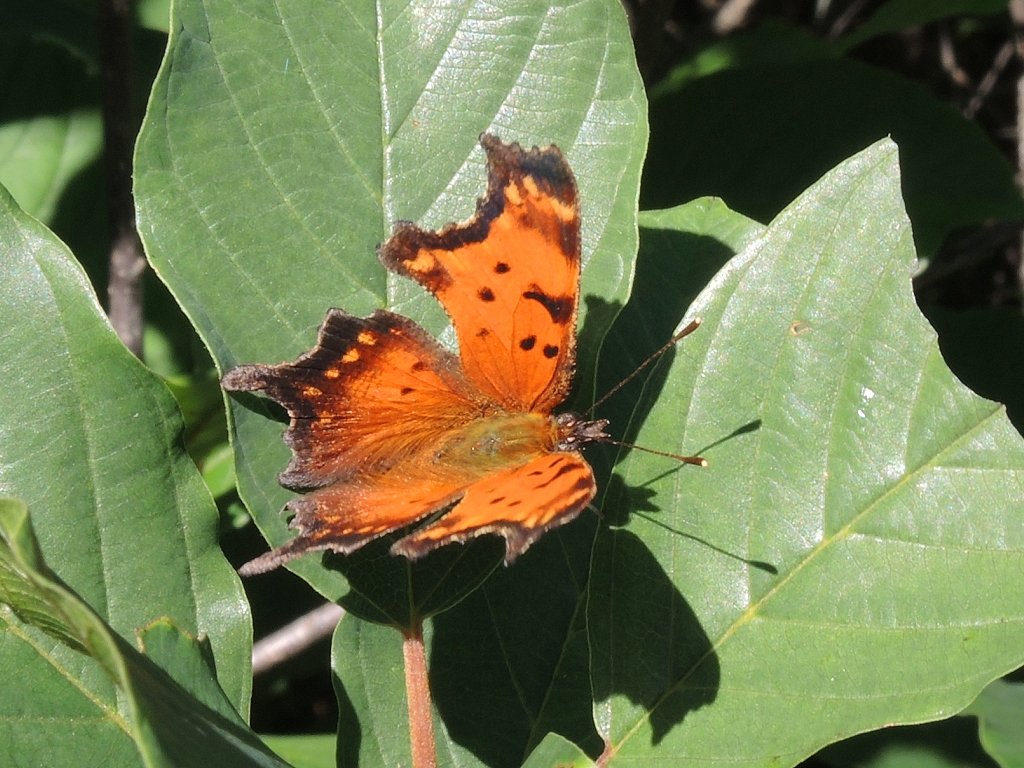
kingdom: Animalia
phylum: Arthropoda
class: Insecta
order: Lepidoptera
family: Nymphalidae
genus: Polygonia
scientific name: Polygonia progne
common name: Gray Comma
